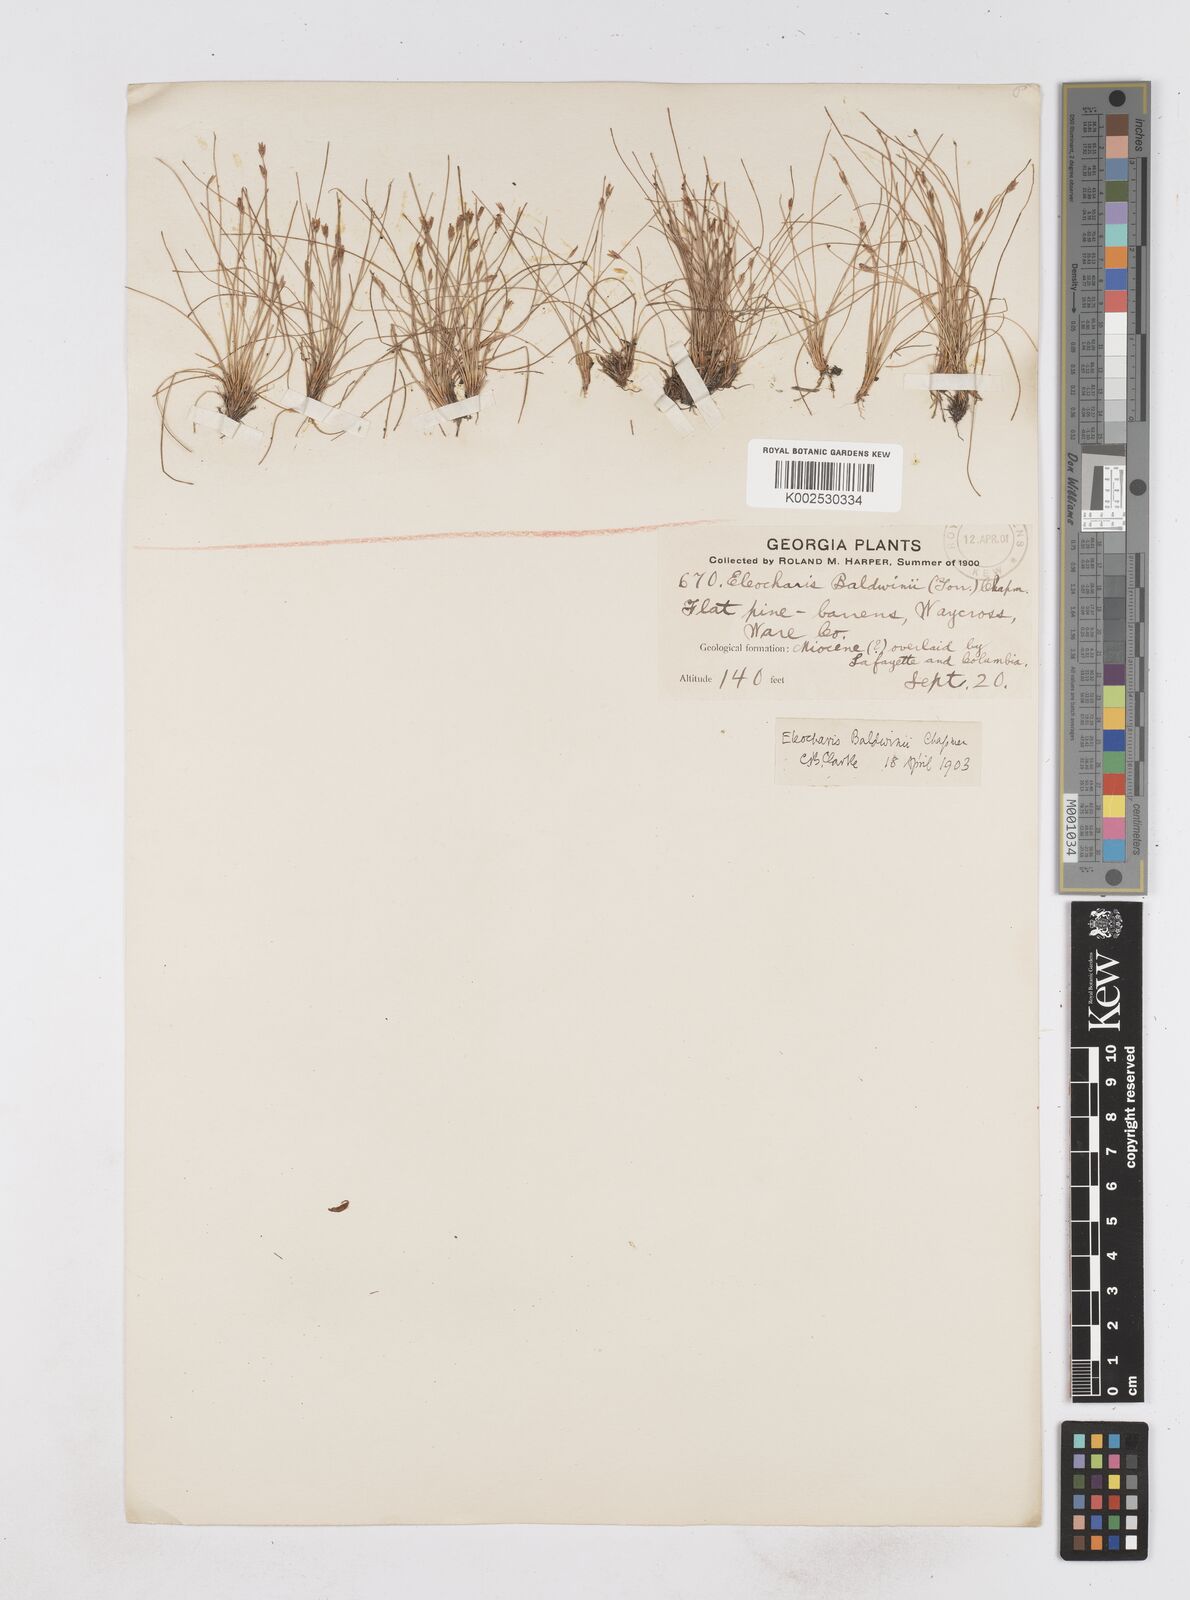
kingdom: Plantae
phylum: Tracheophyta
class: Liliopsida
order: Poales
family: Cyperaceae
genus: Eleocharis
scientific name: Eleocharis baldwinii
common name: Baldwin's spike-rush
